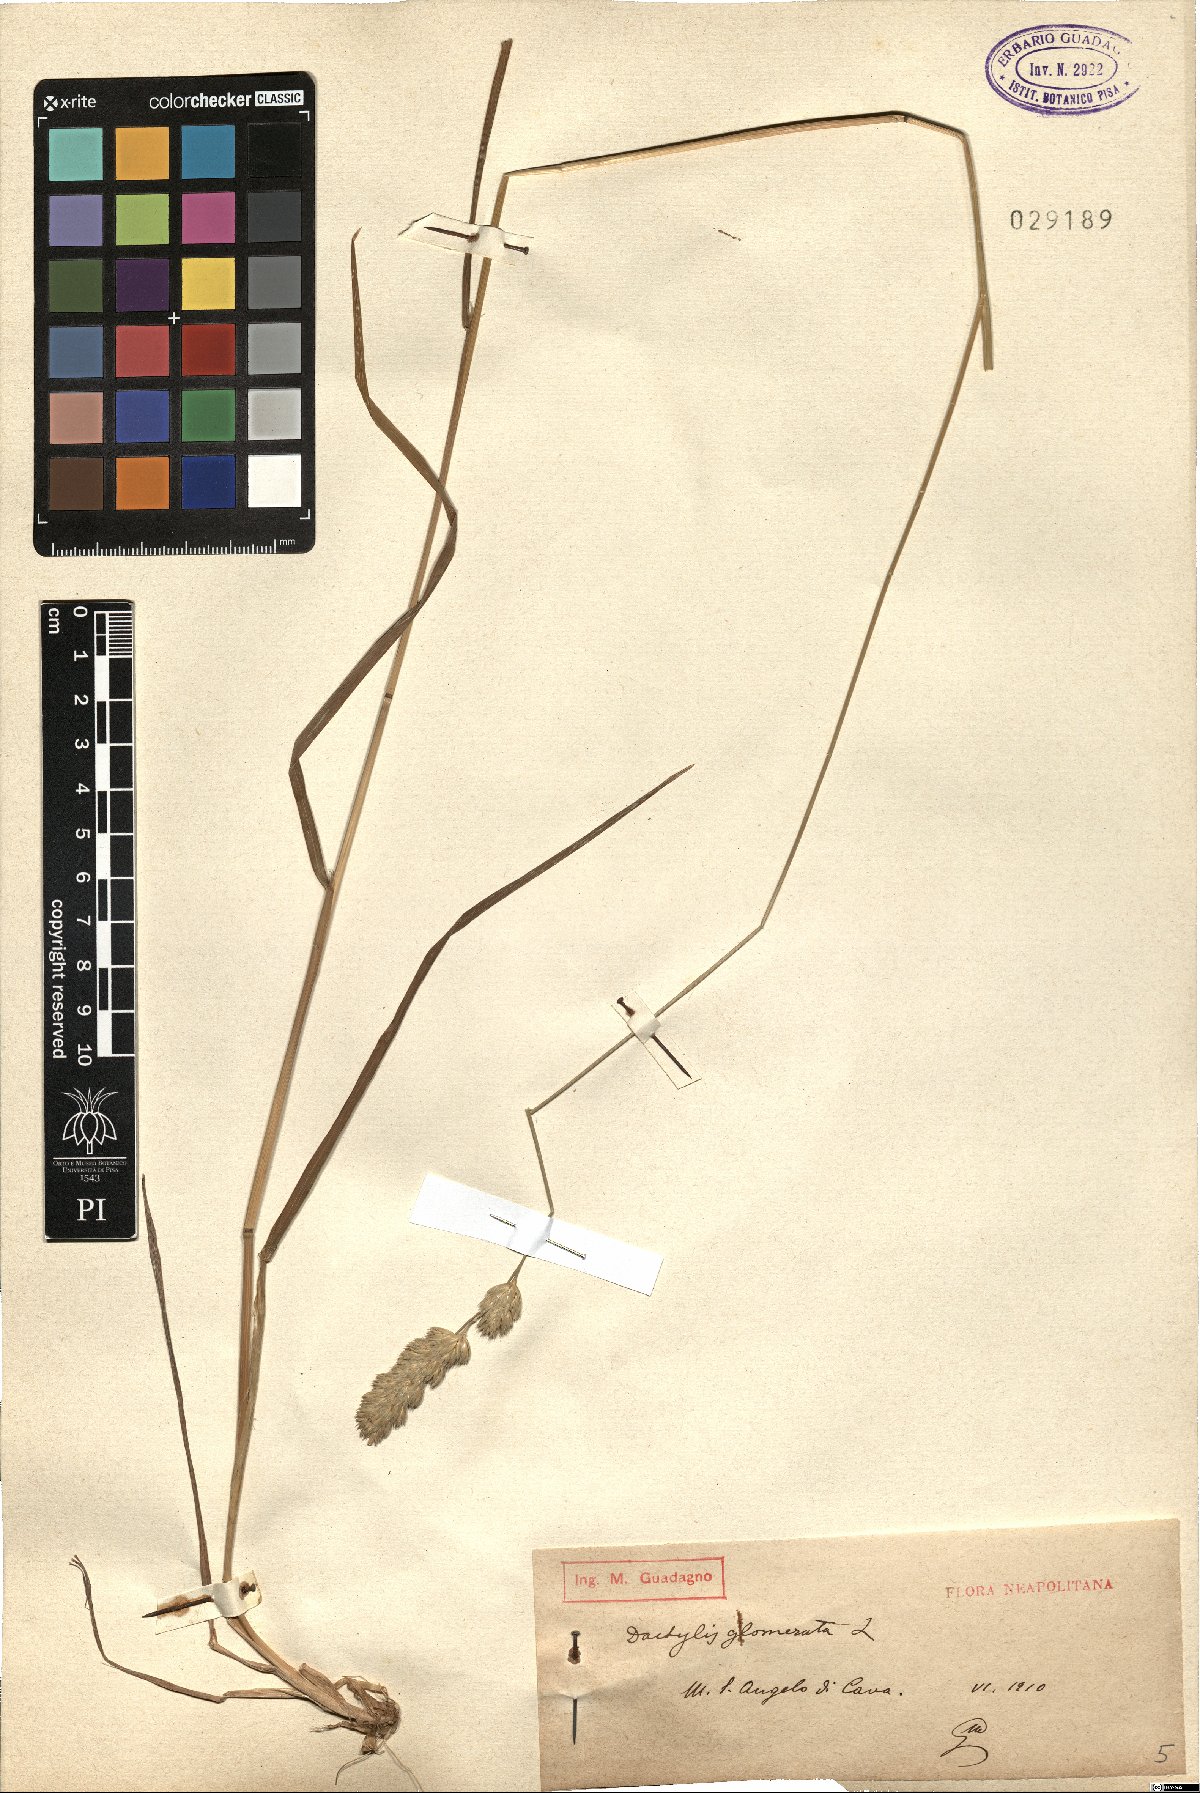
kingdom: Plantae
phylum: Tracheophyta
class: Liliopsida
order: Poales
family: Poaceae
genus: Dactylis
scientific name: Dactylis glomerata
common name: Orchardgrass
